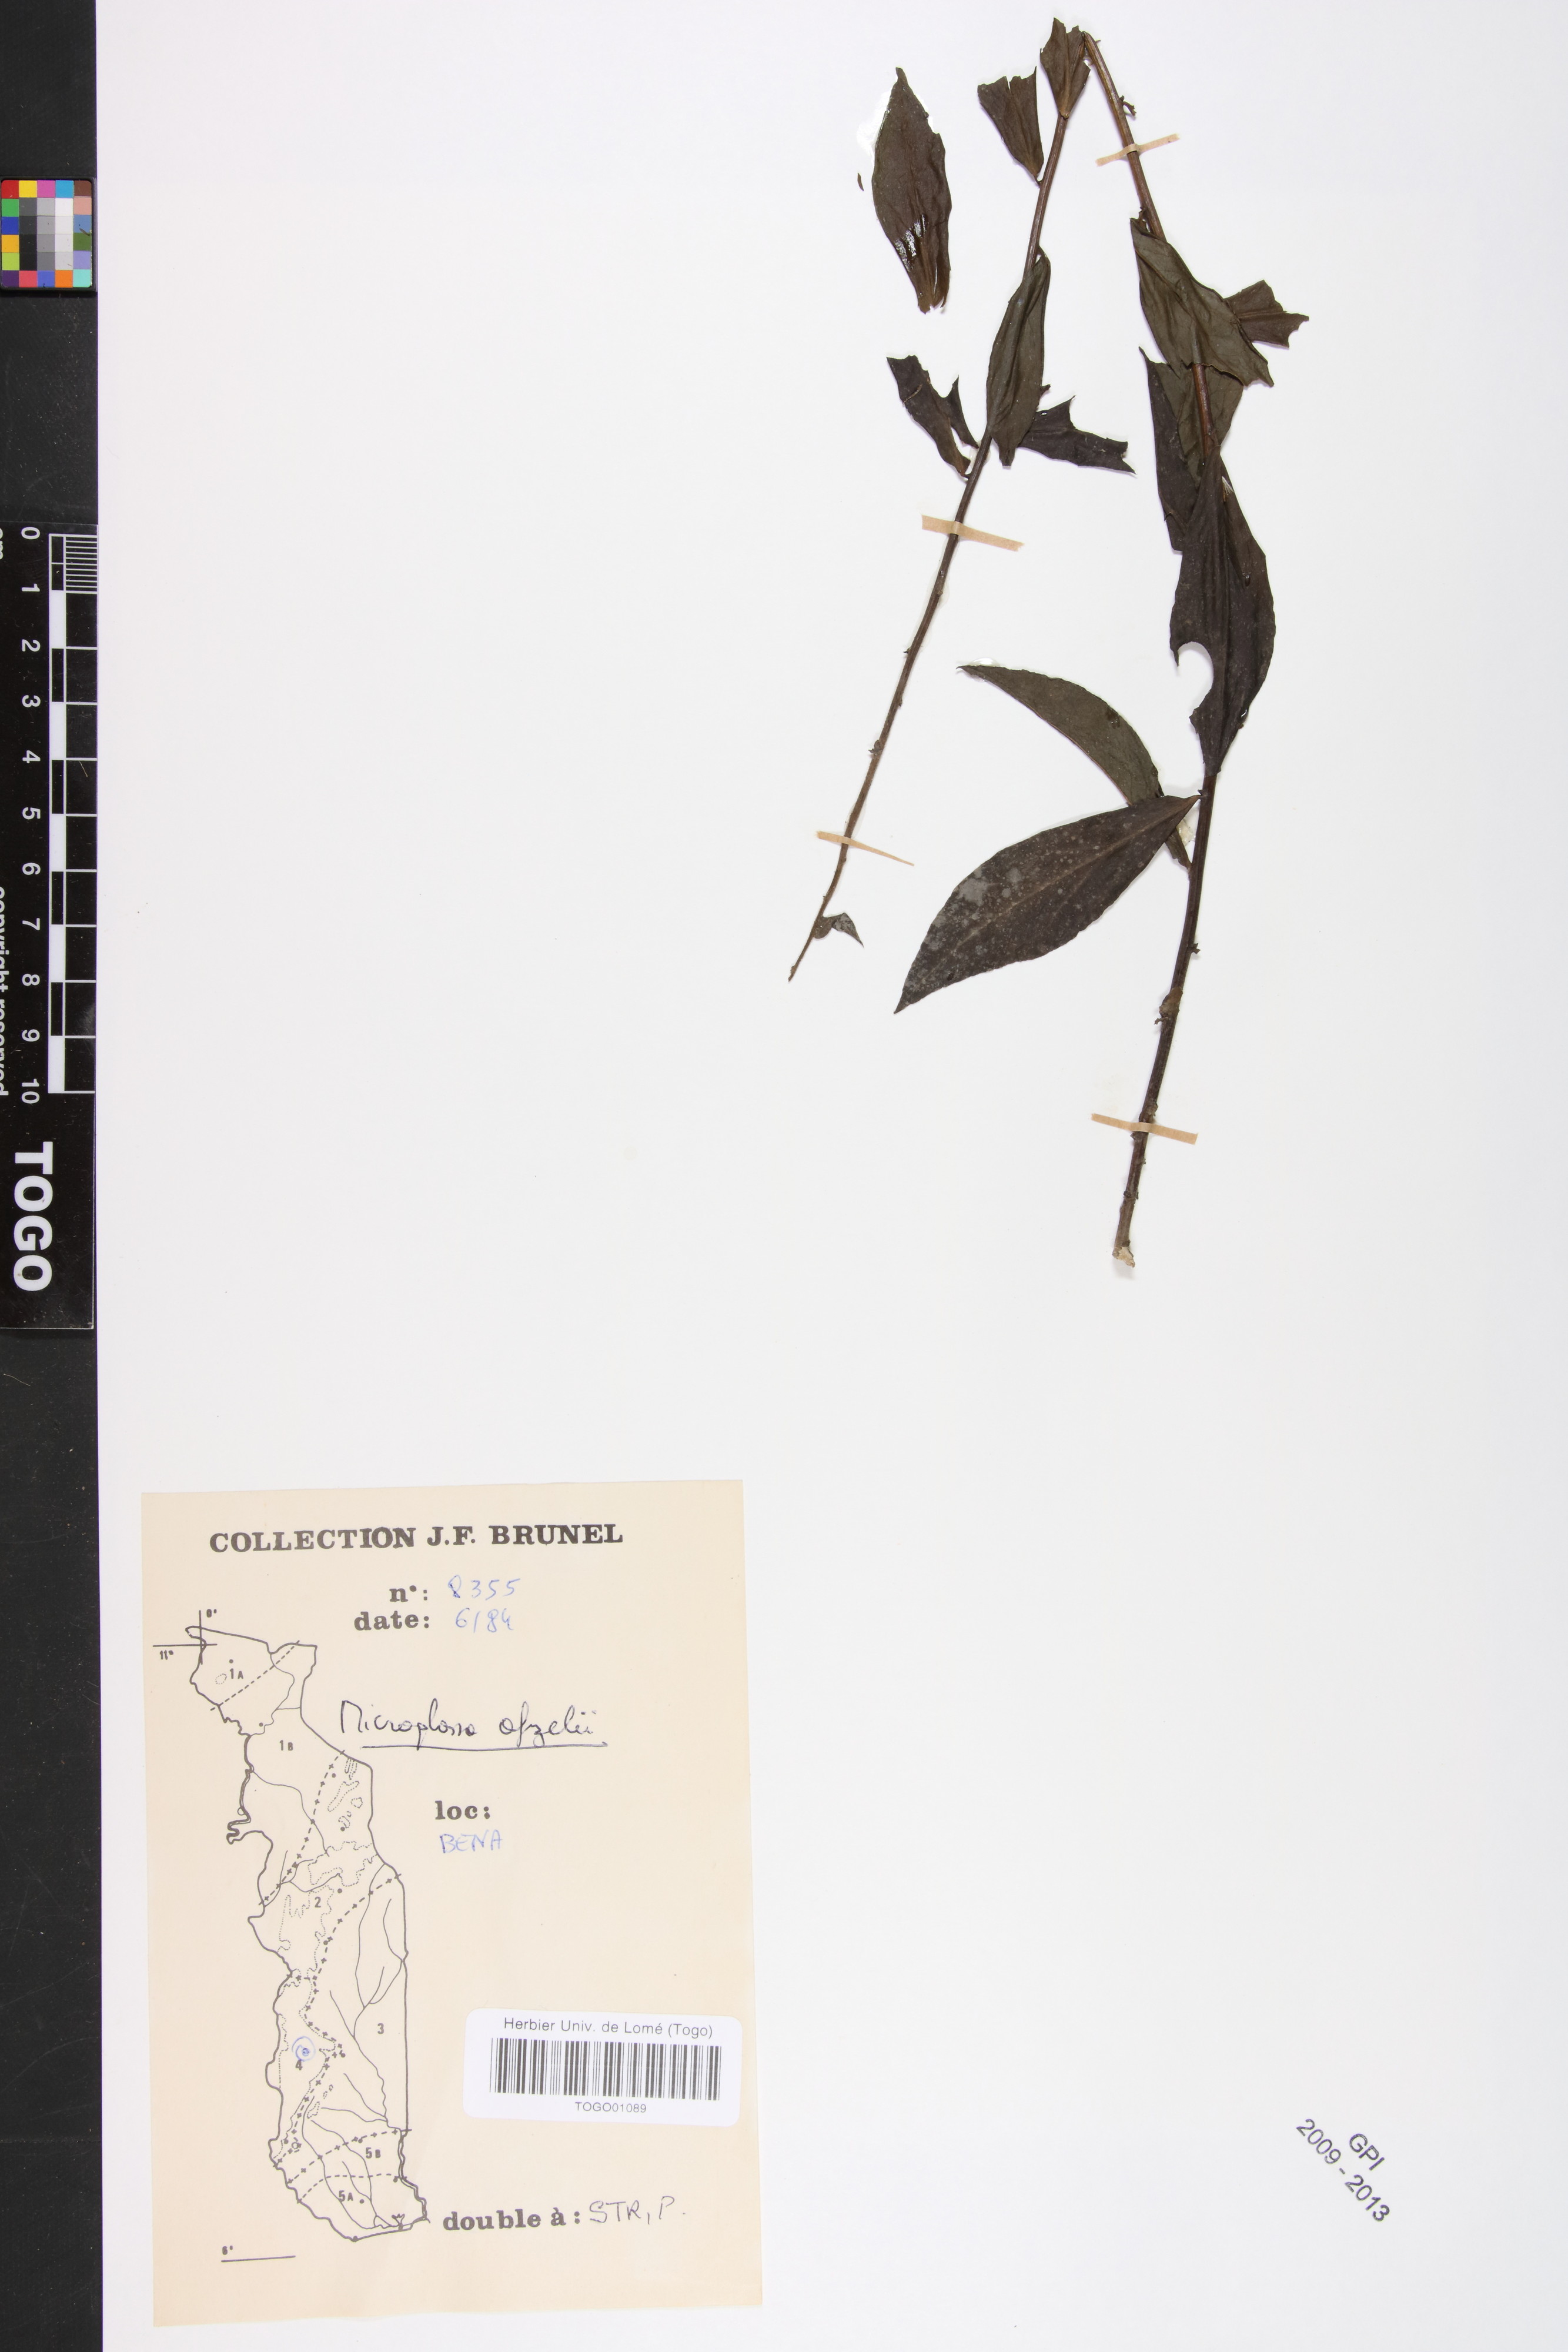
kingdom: Plantae
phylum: Tracheophyta
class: Magnoliopsida
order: Asterales
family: Asteraceae
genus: Microglossa
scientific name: Microglossa afzelii
